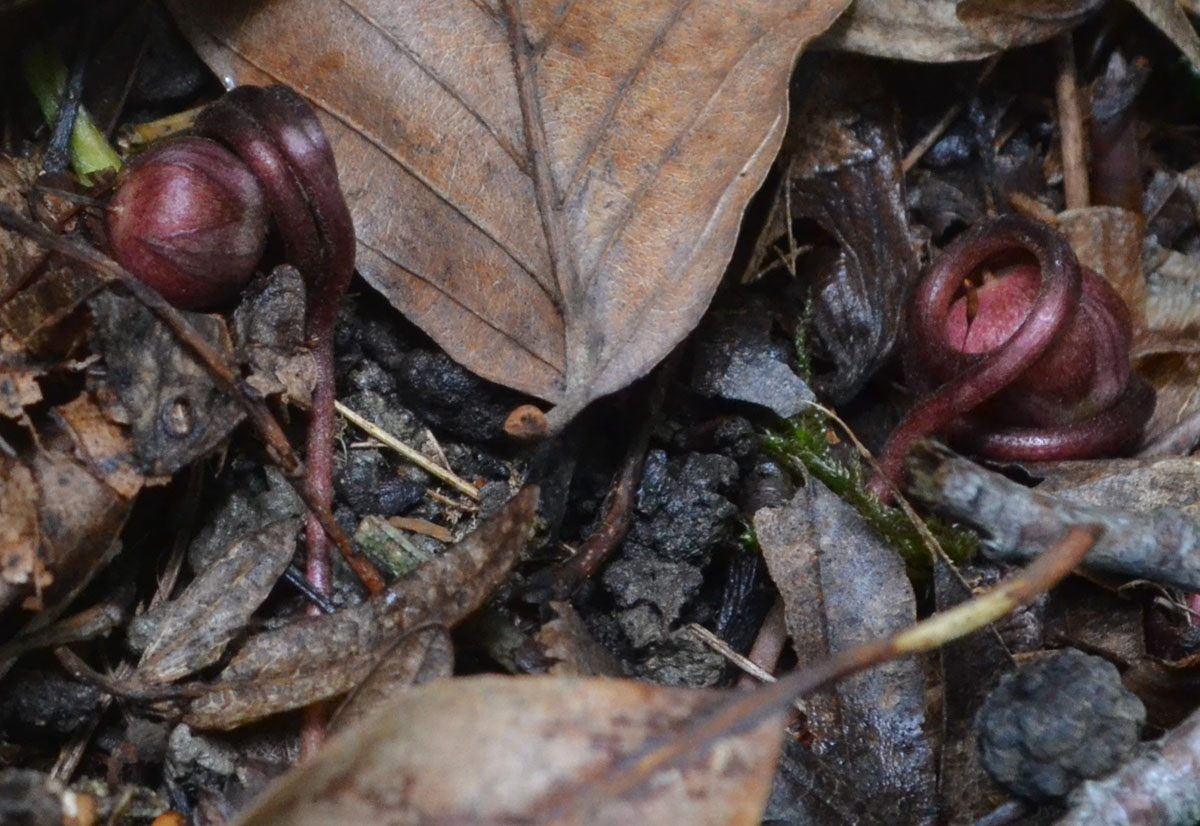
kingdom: Plantae
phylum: Tracheophyta
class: Magnoliopsida
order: Ericales
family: Primulaceae
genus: Cyclamen
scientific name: Cyclamen
